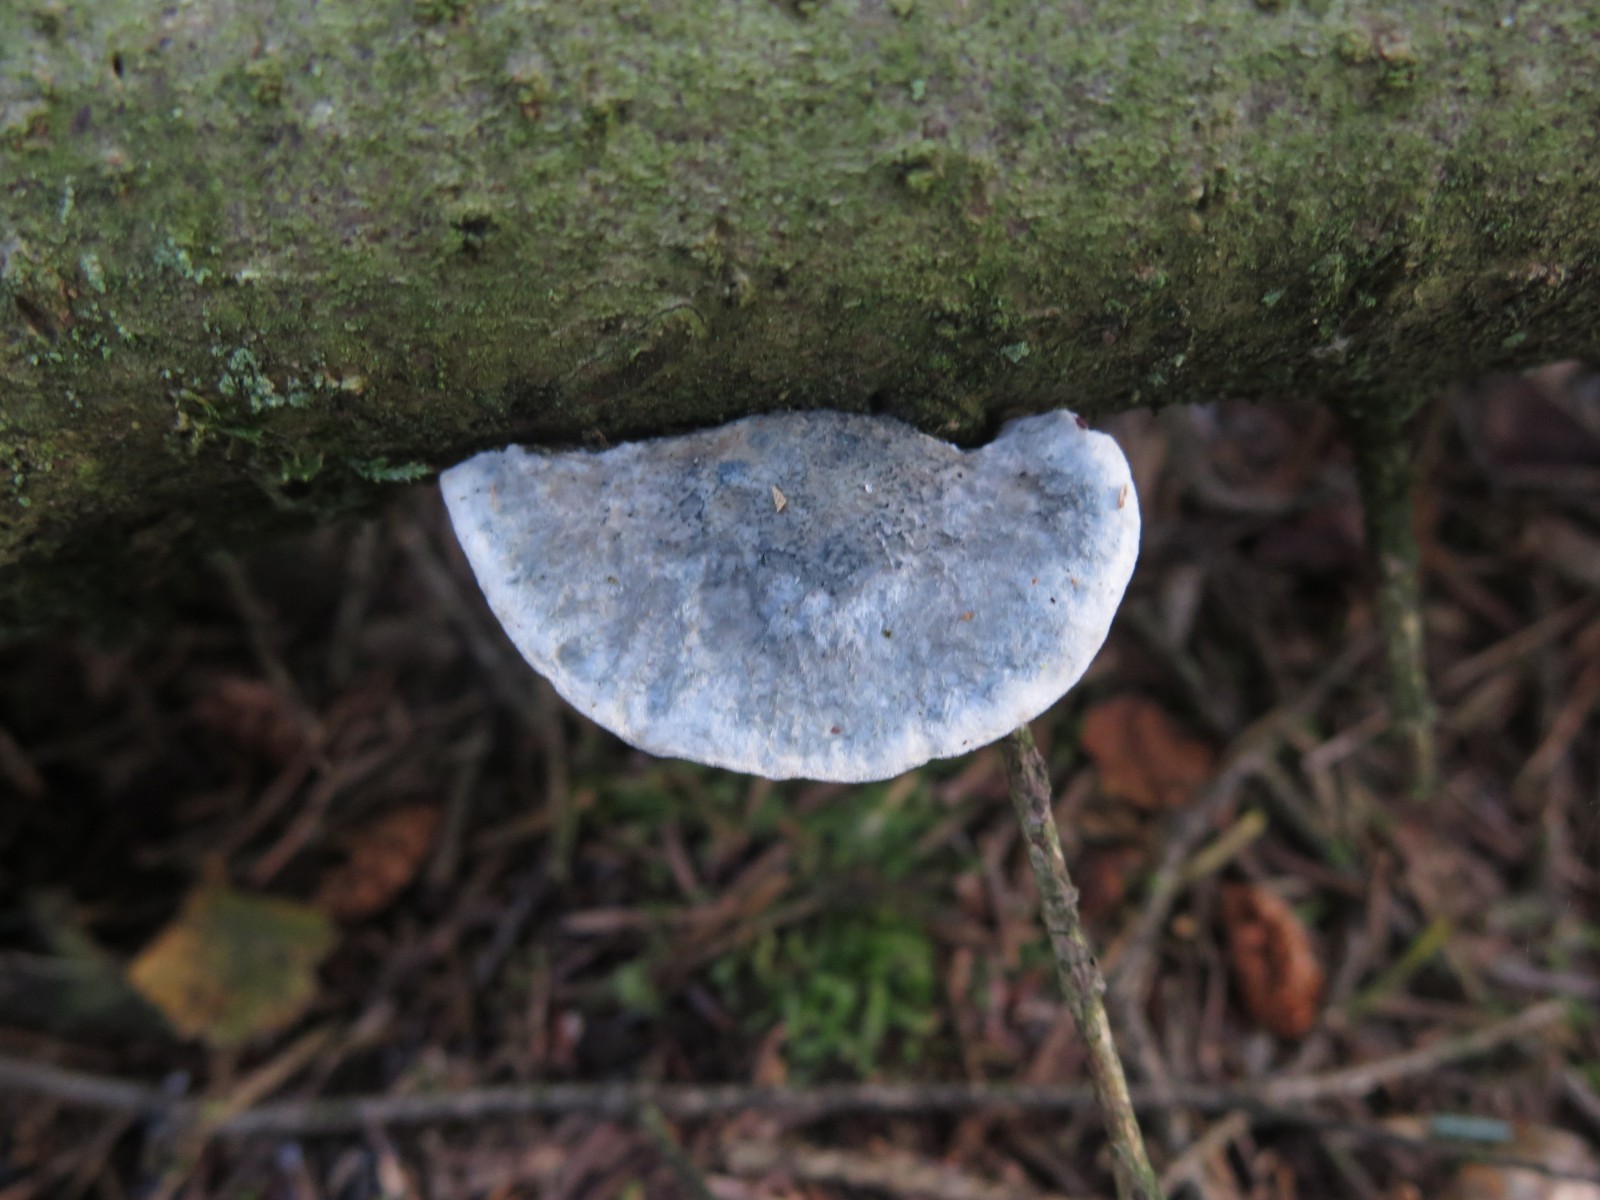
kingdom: Fungi
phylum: Basidiomycota
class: Agaricomycetes
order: Polyporales
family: Polyporaceae
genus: Cyanosporus
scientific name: Cyanosporus caesius
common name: blålig kødporesvamp
